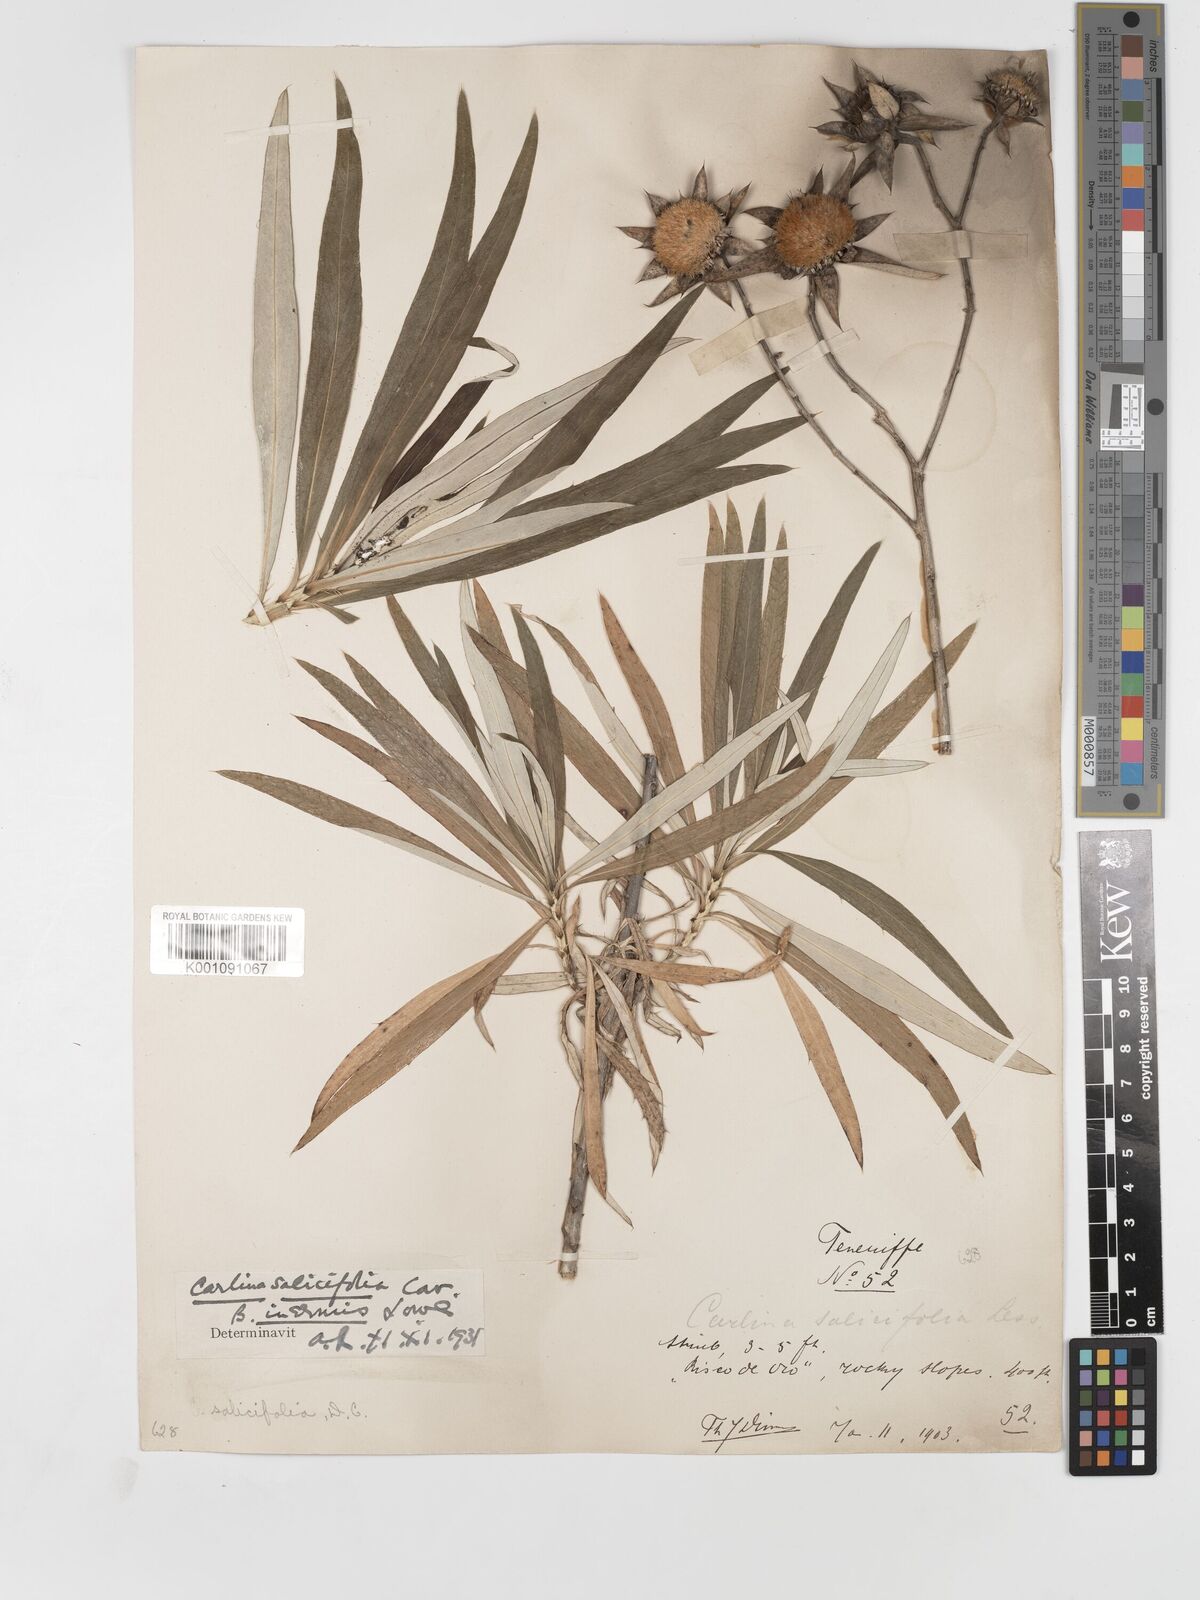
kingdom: Plantae
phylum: Tracheophyta
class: Magnoliopsida
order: Asterales
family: Asteraceae
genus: Carlina
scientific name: Carlina salicifolia
